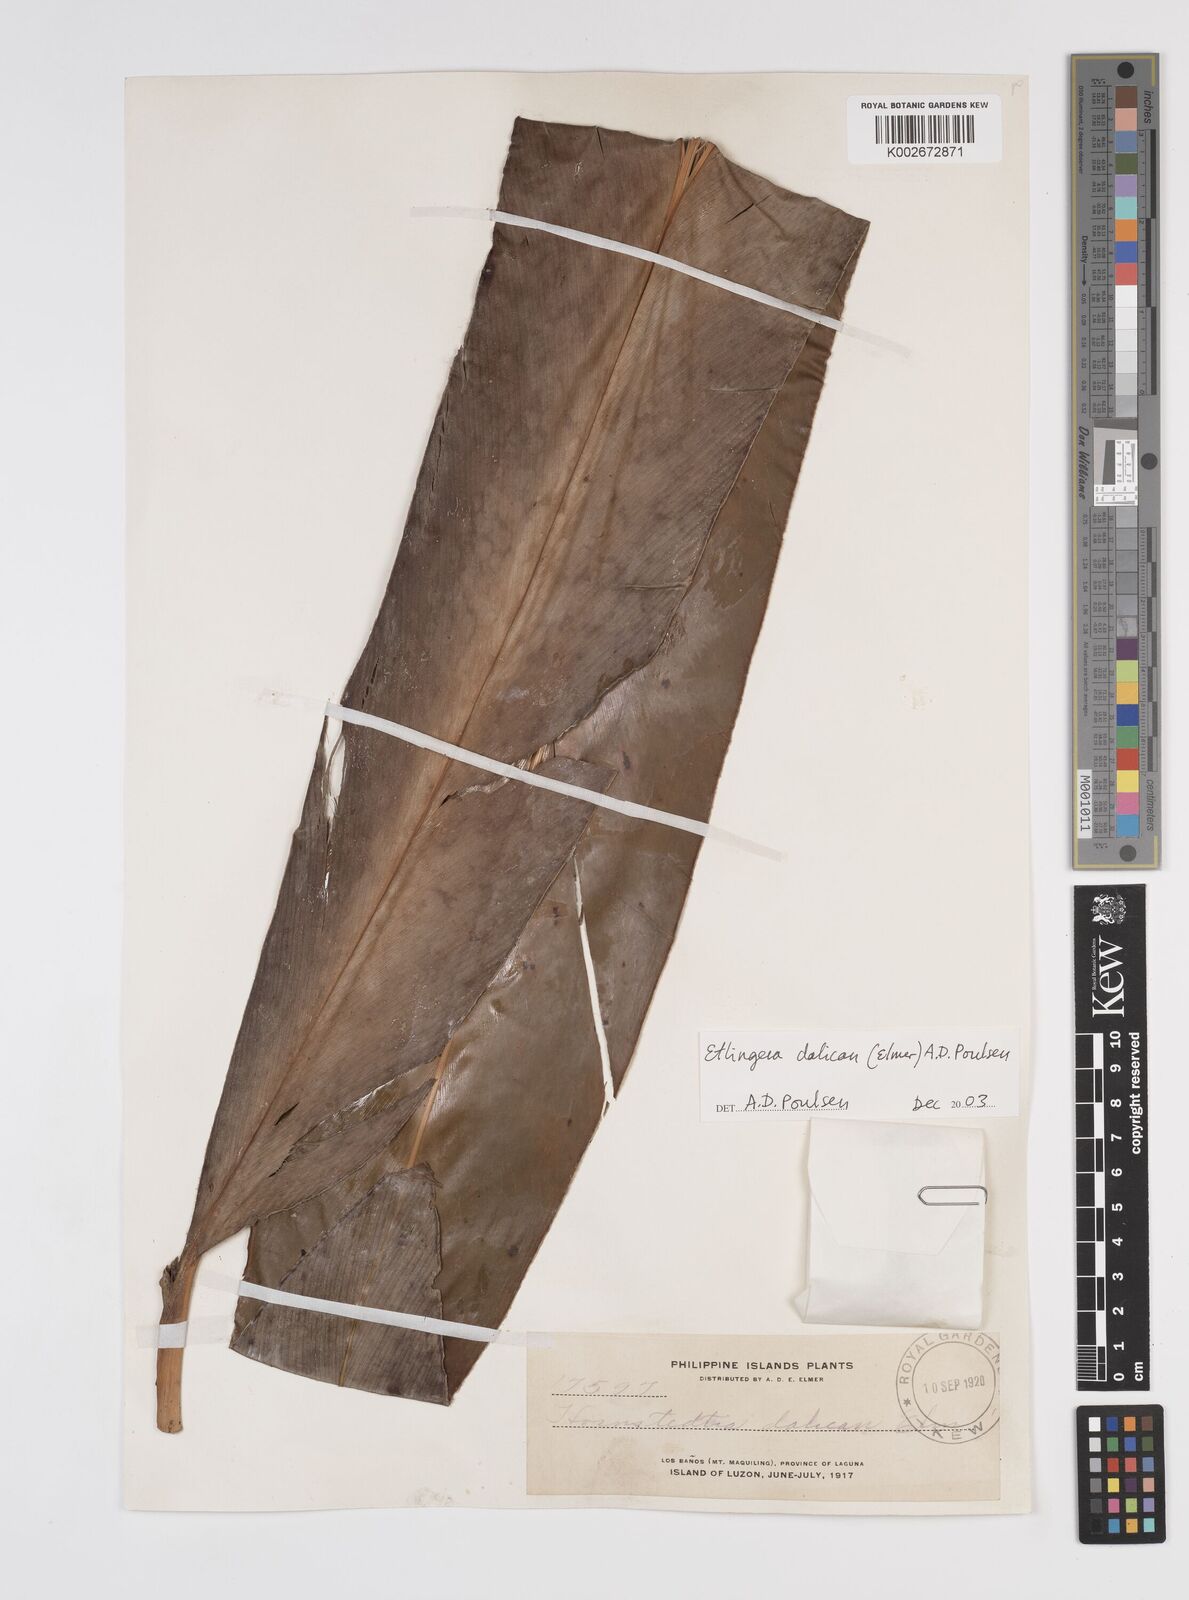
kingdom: Plantae
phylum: Tracheophyta
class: Liliopsida
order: Zingiberales
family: Zingiberaceae
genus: Etlingera
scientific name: Etlingera dalican
